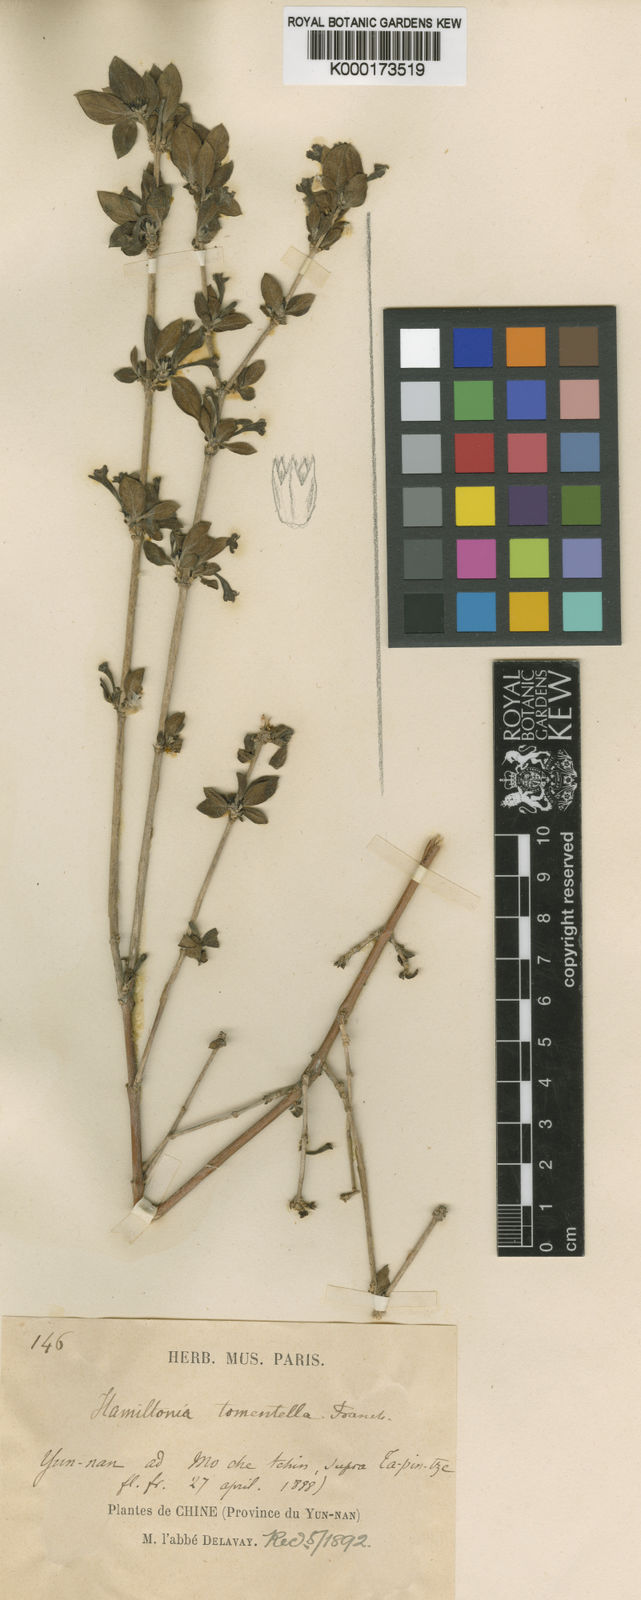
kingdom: Plantae
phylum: Tracheophyta
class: Magnoliopsida
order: Gentianales
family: Rubiaceae
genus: Leptodermis
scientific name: Leptodermis tomentella
